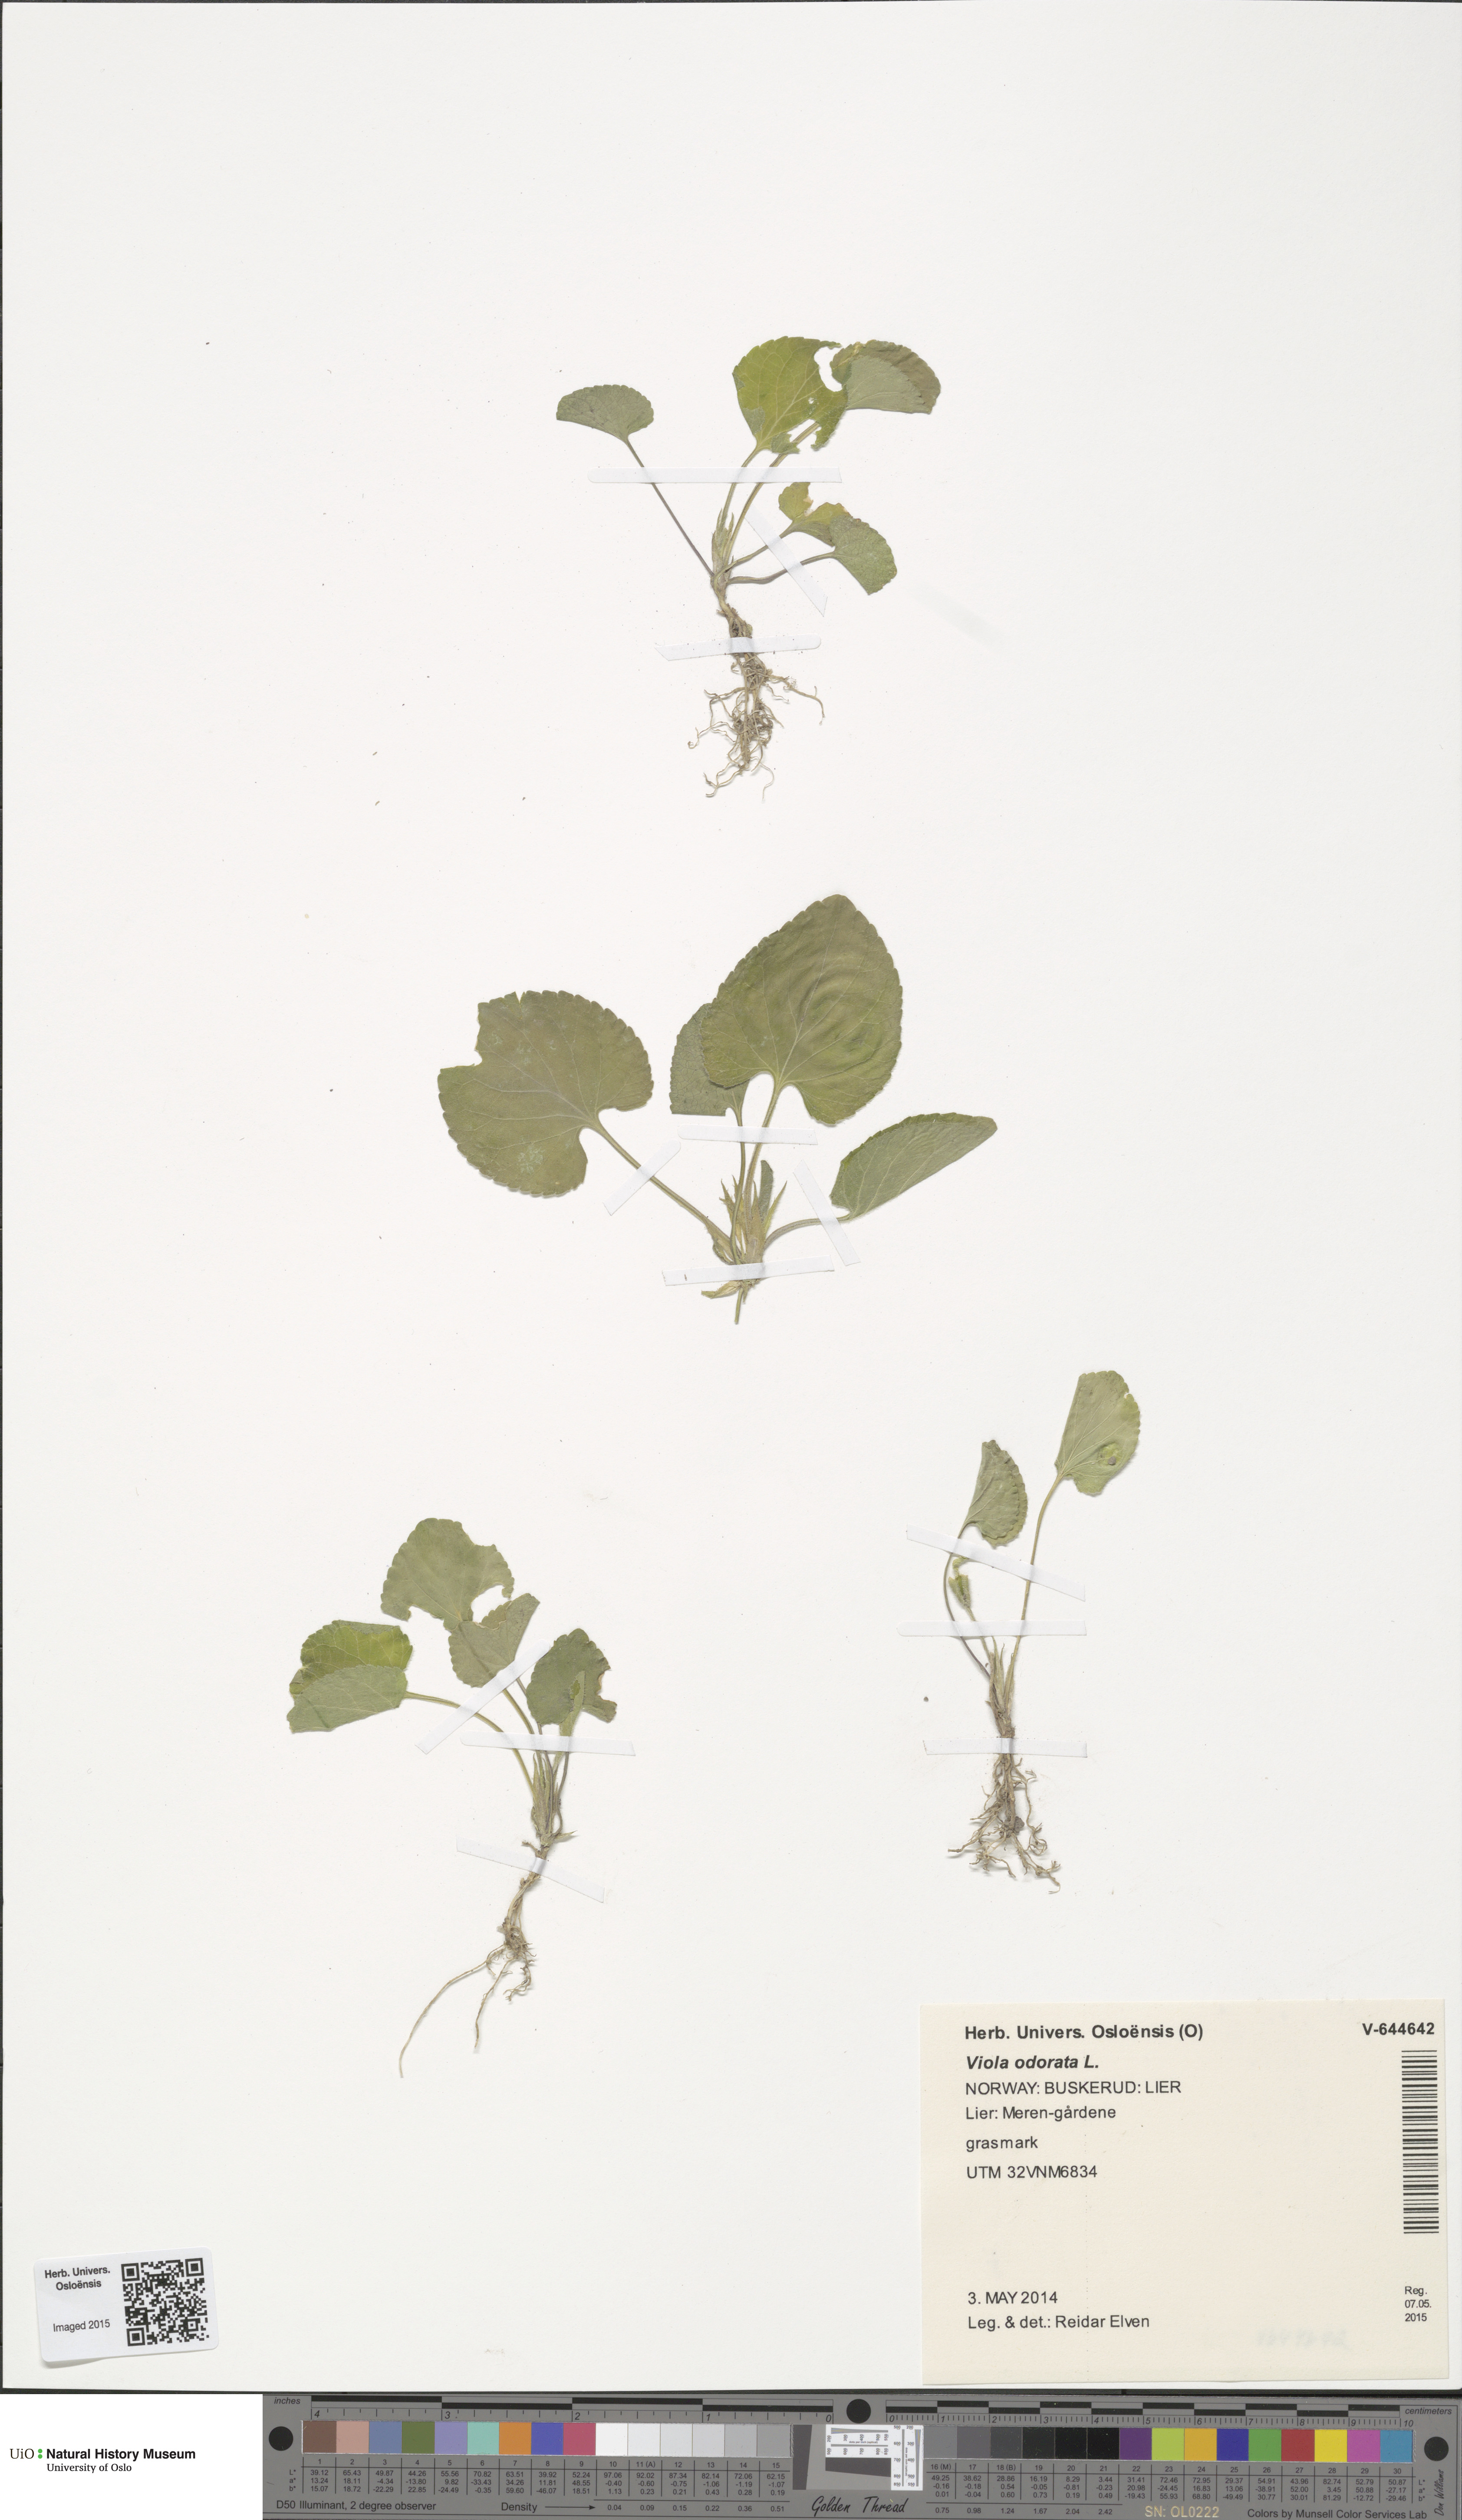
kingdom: Plantae
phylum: Tracheophyta
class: Magnoliopsida
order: Malpighiales
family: Violaceae
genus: Viola
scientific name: Viola odorata
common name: Sweet violet
